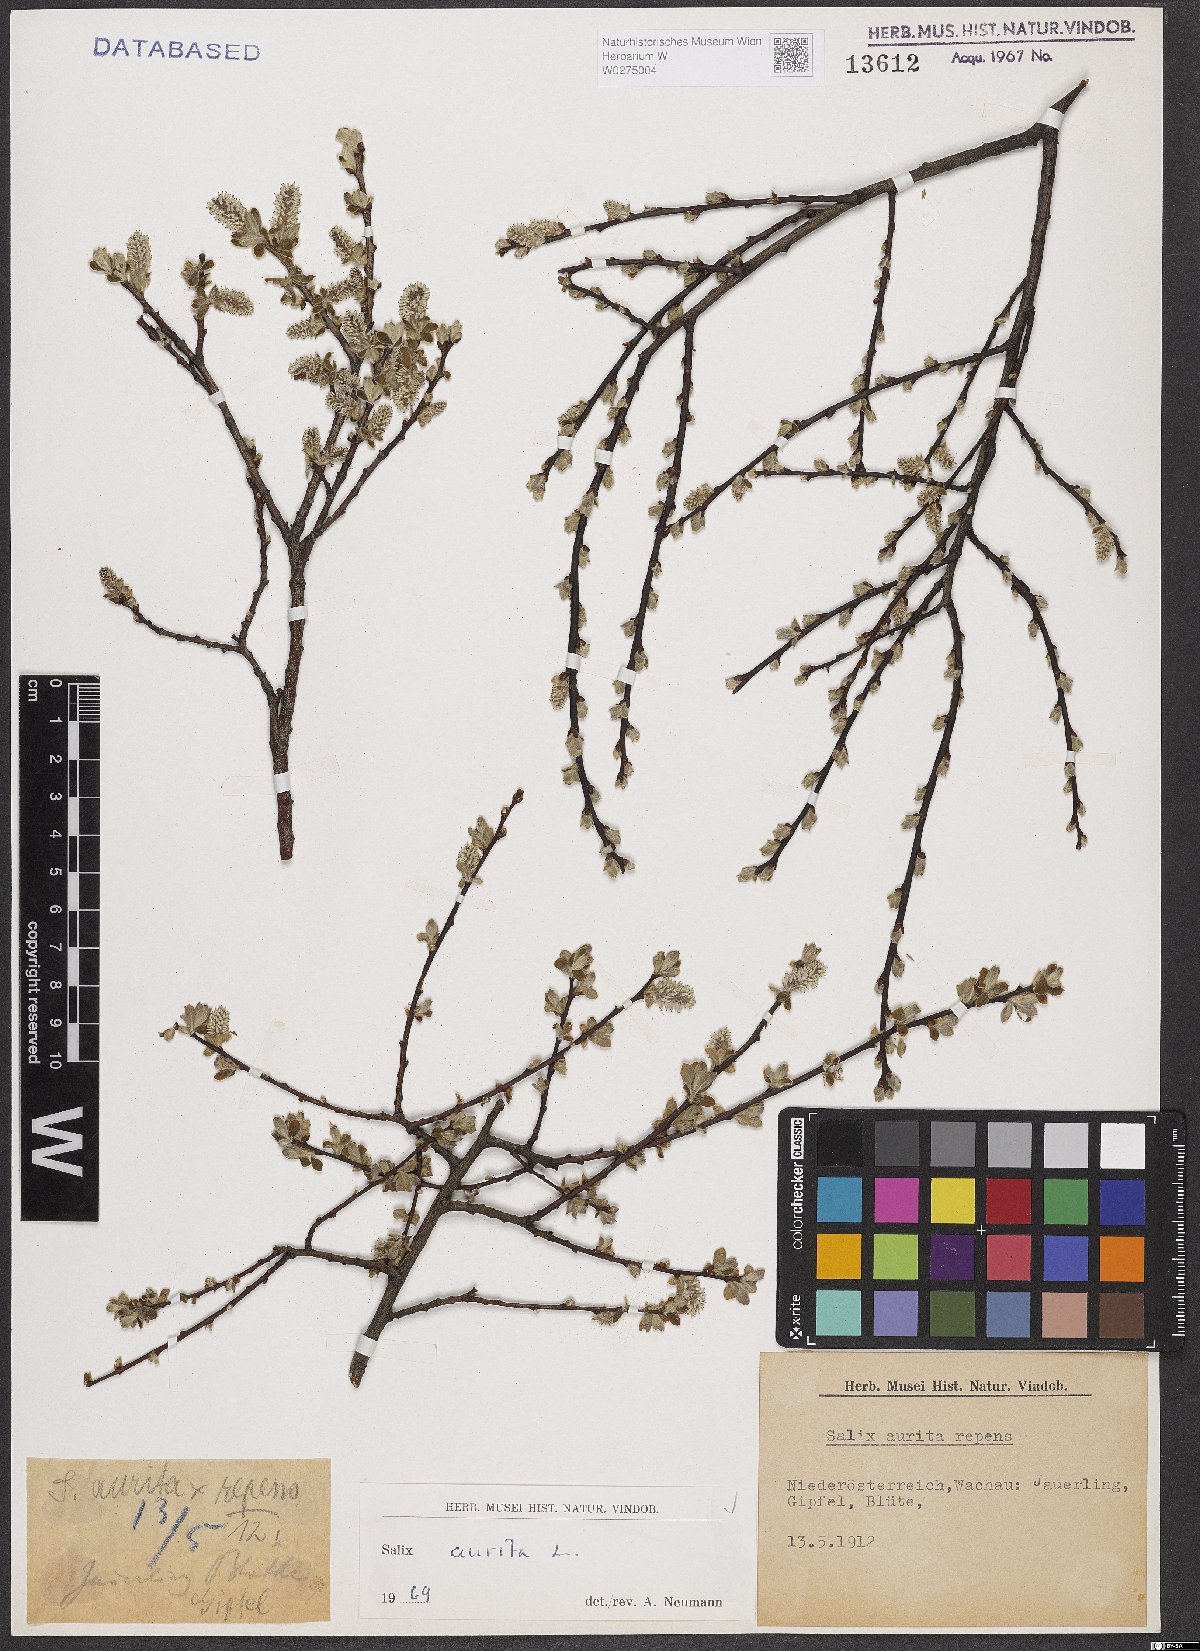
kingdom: Plantae
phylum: Tracheophyta
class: Magnoliopsida
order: Malpighiales
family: Salicaceae
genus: Salix
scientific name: Salix aurita
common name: Eared willow
